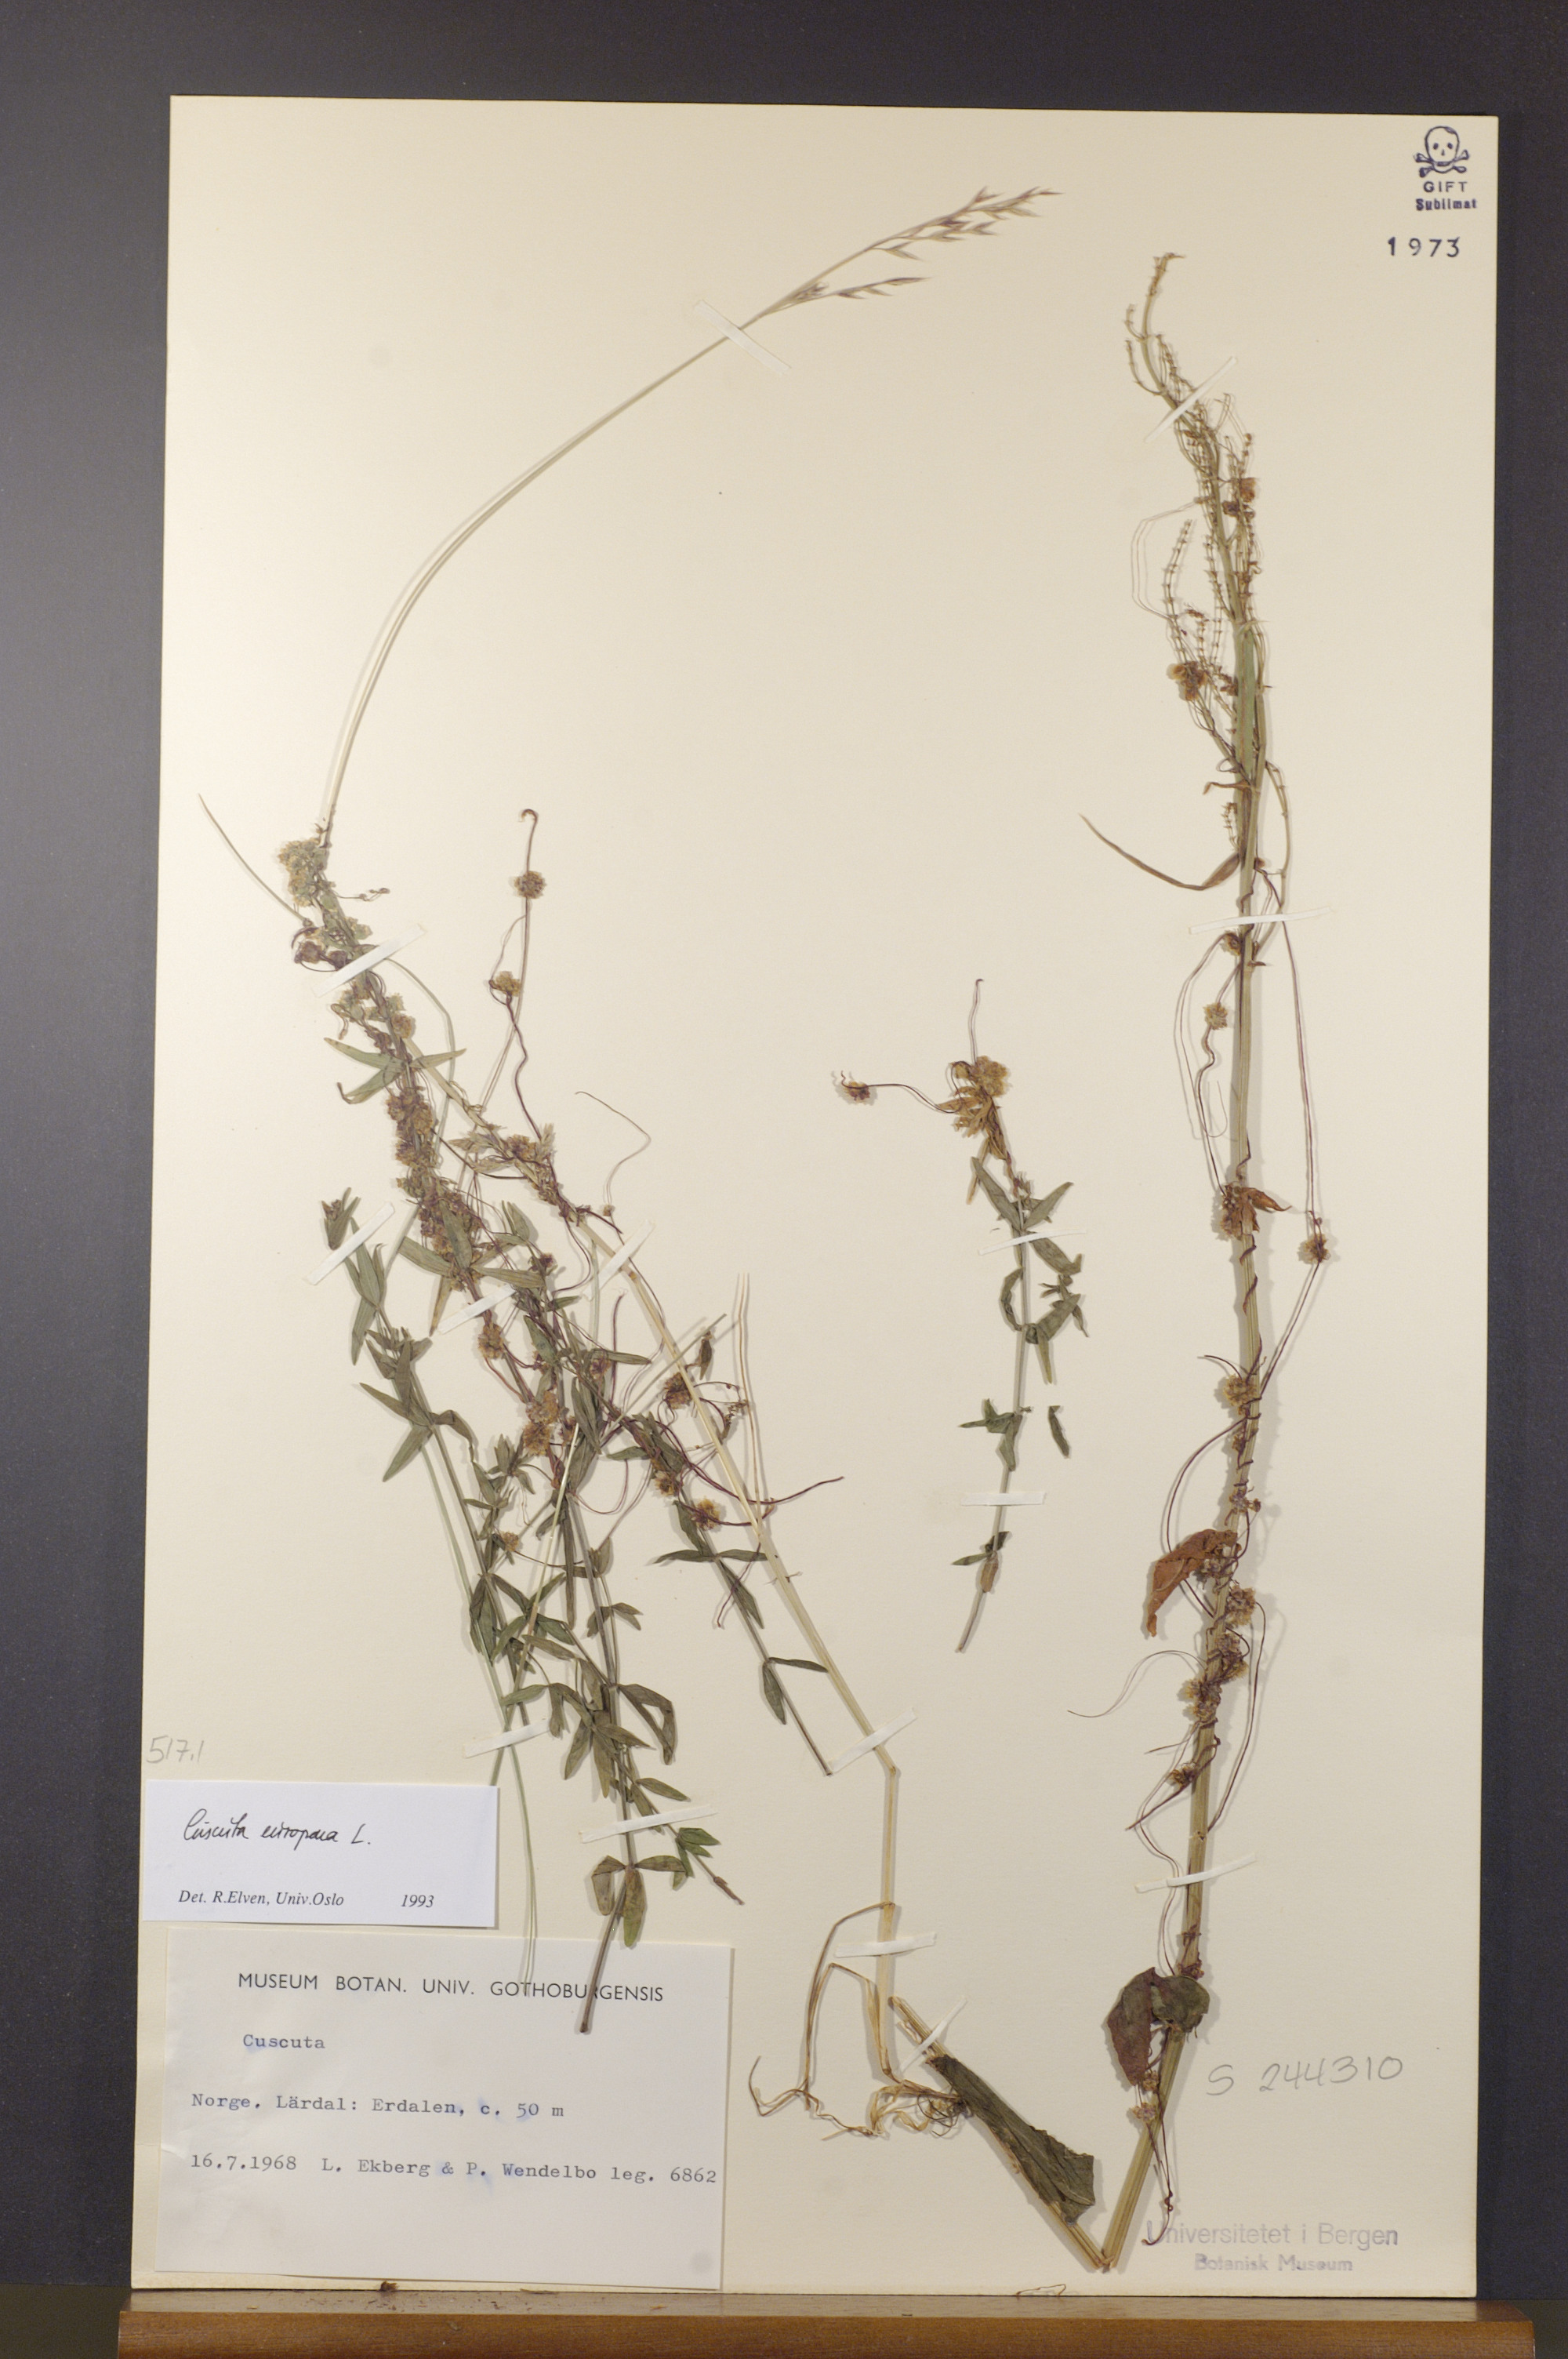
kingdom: Plantae
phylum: Tracheophyta
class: Magnoliopsida
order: Solanales
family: Convolvulaceae
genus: Cuscuta
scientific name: Cuscuta europaea
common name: Greater dodder
